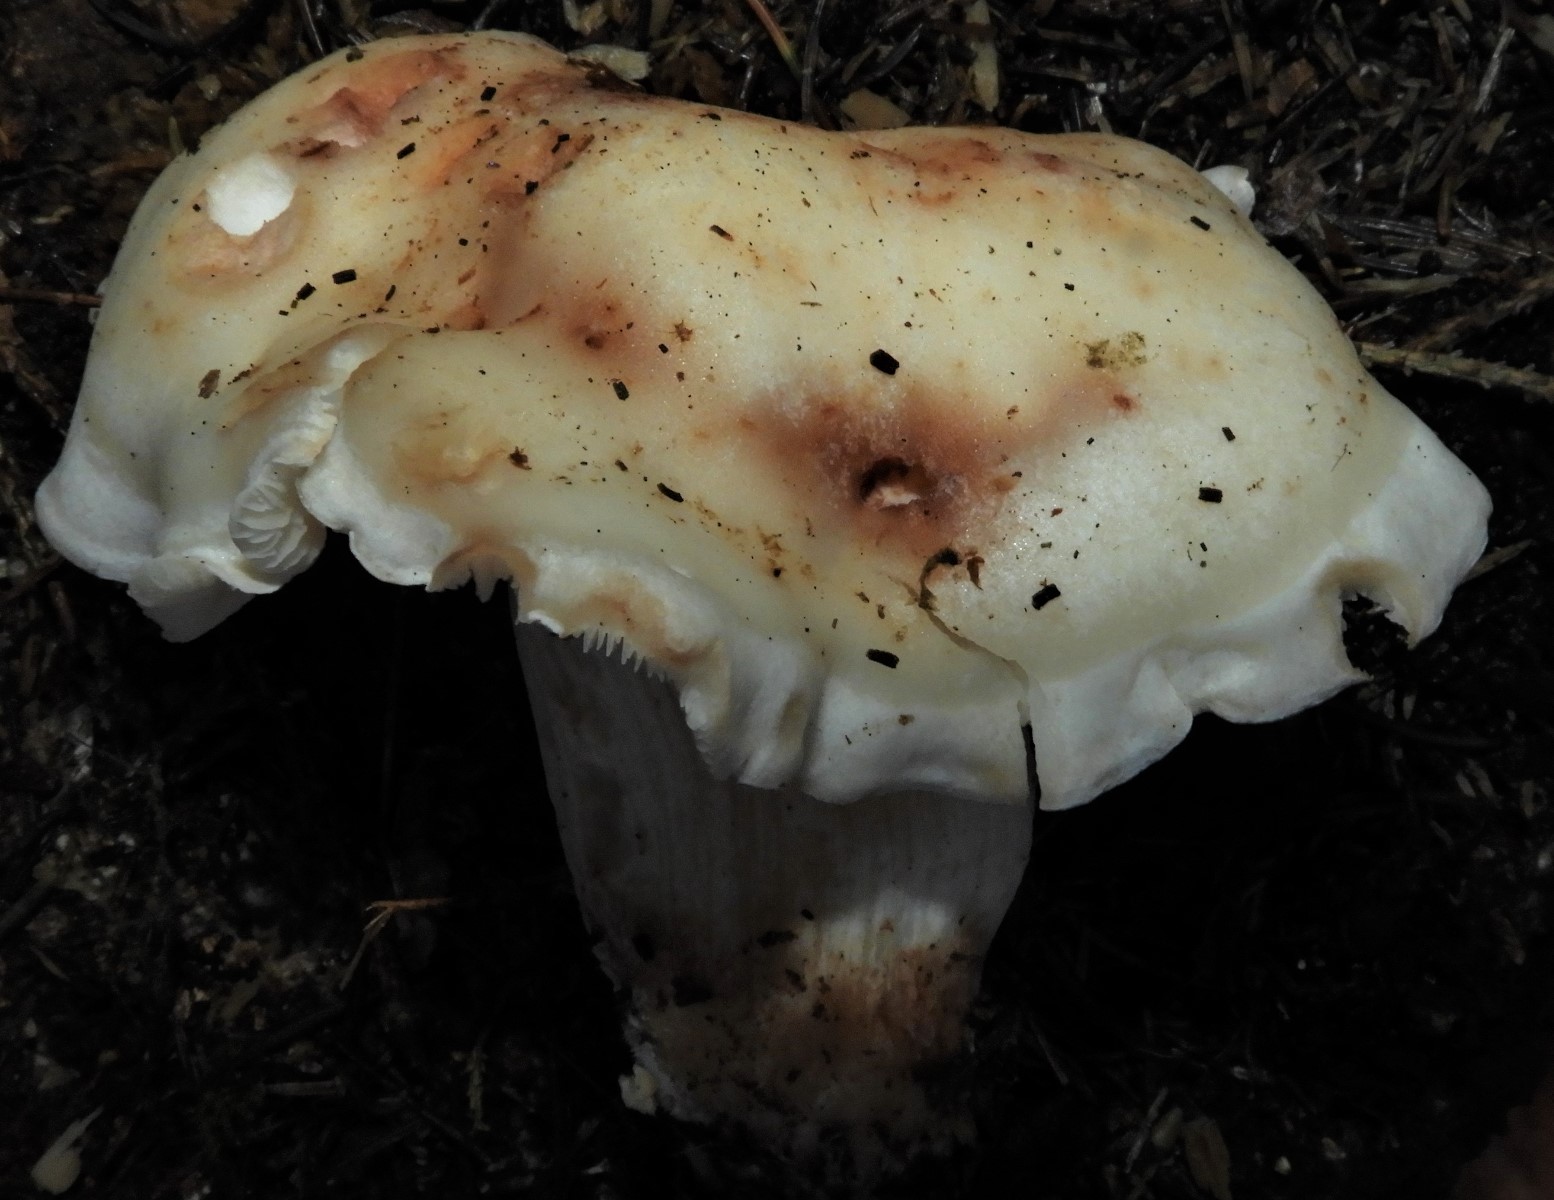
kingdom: Fungi
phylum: Basidiomycota
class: Agaricomycetes
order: Agaricales
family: Omphalotaceae
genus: Rhodocollybia
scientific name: Rhodocollybia maculata
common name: plettet fladhat
